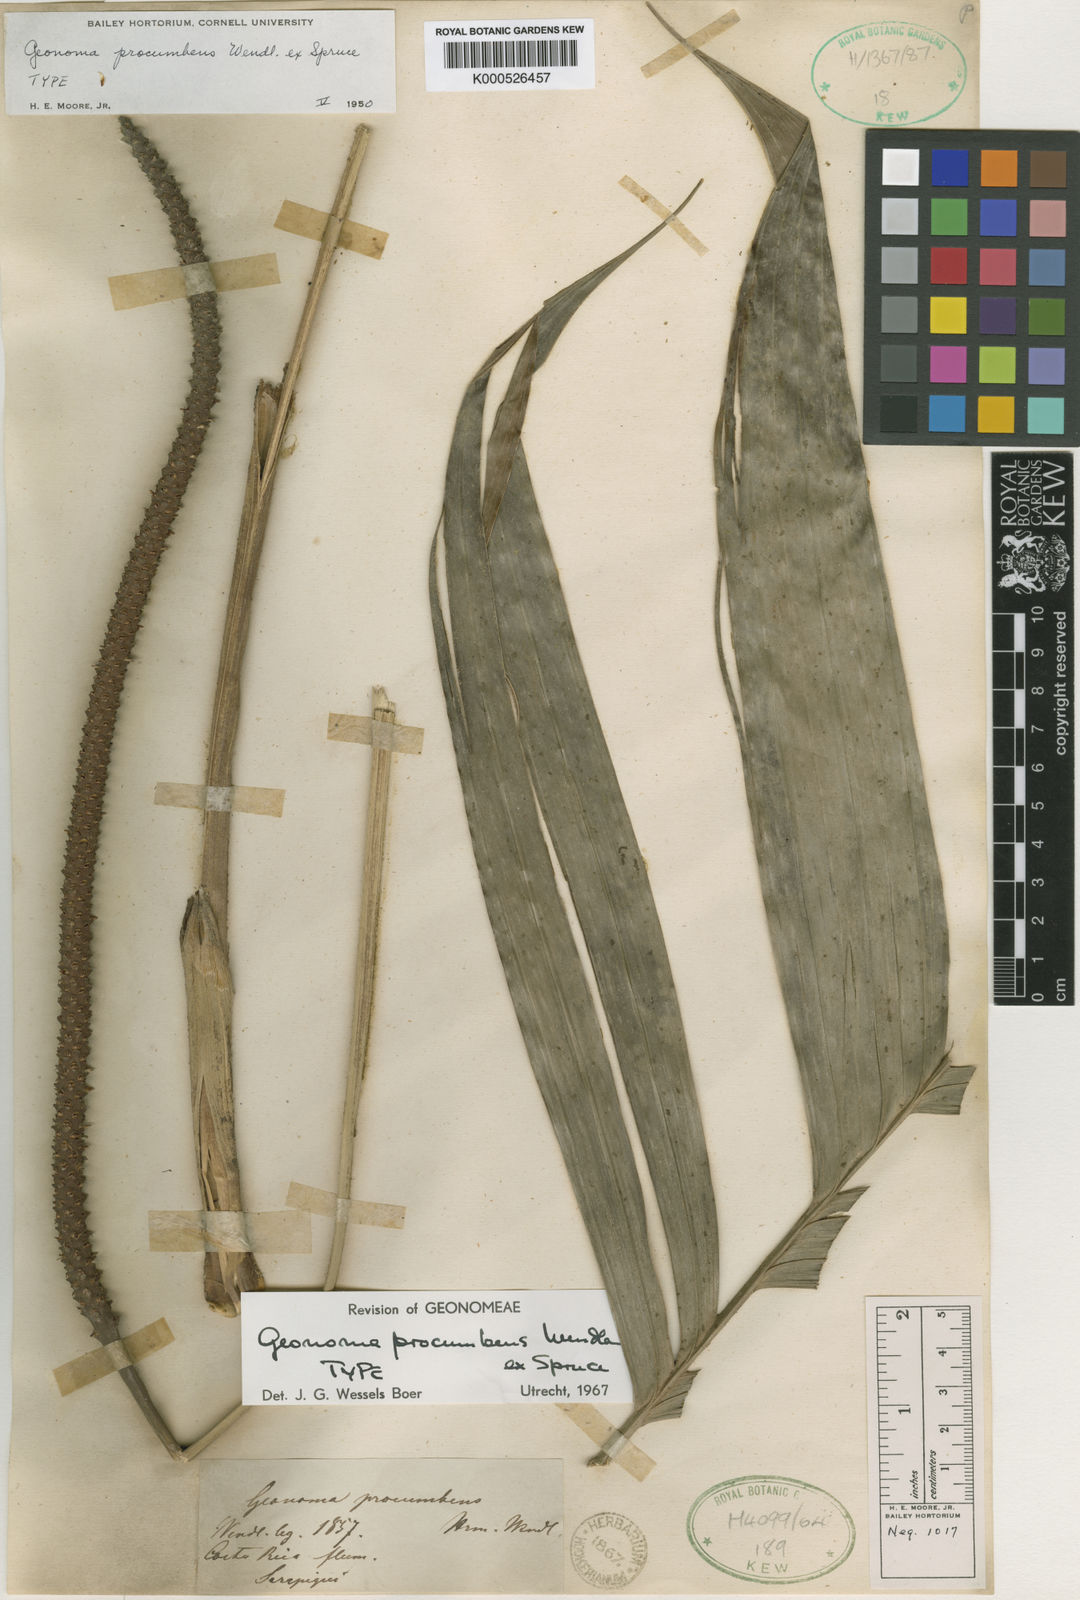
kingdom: Plantae
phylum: Tracheophyta
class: Liliopsida
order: Arecales
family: Arecaceae
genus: Geonoma
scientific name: Geonoma cuneata
